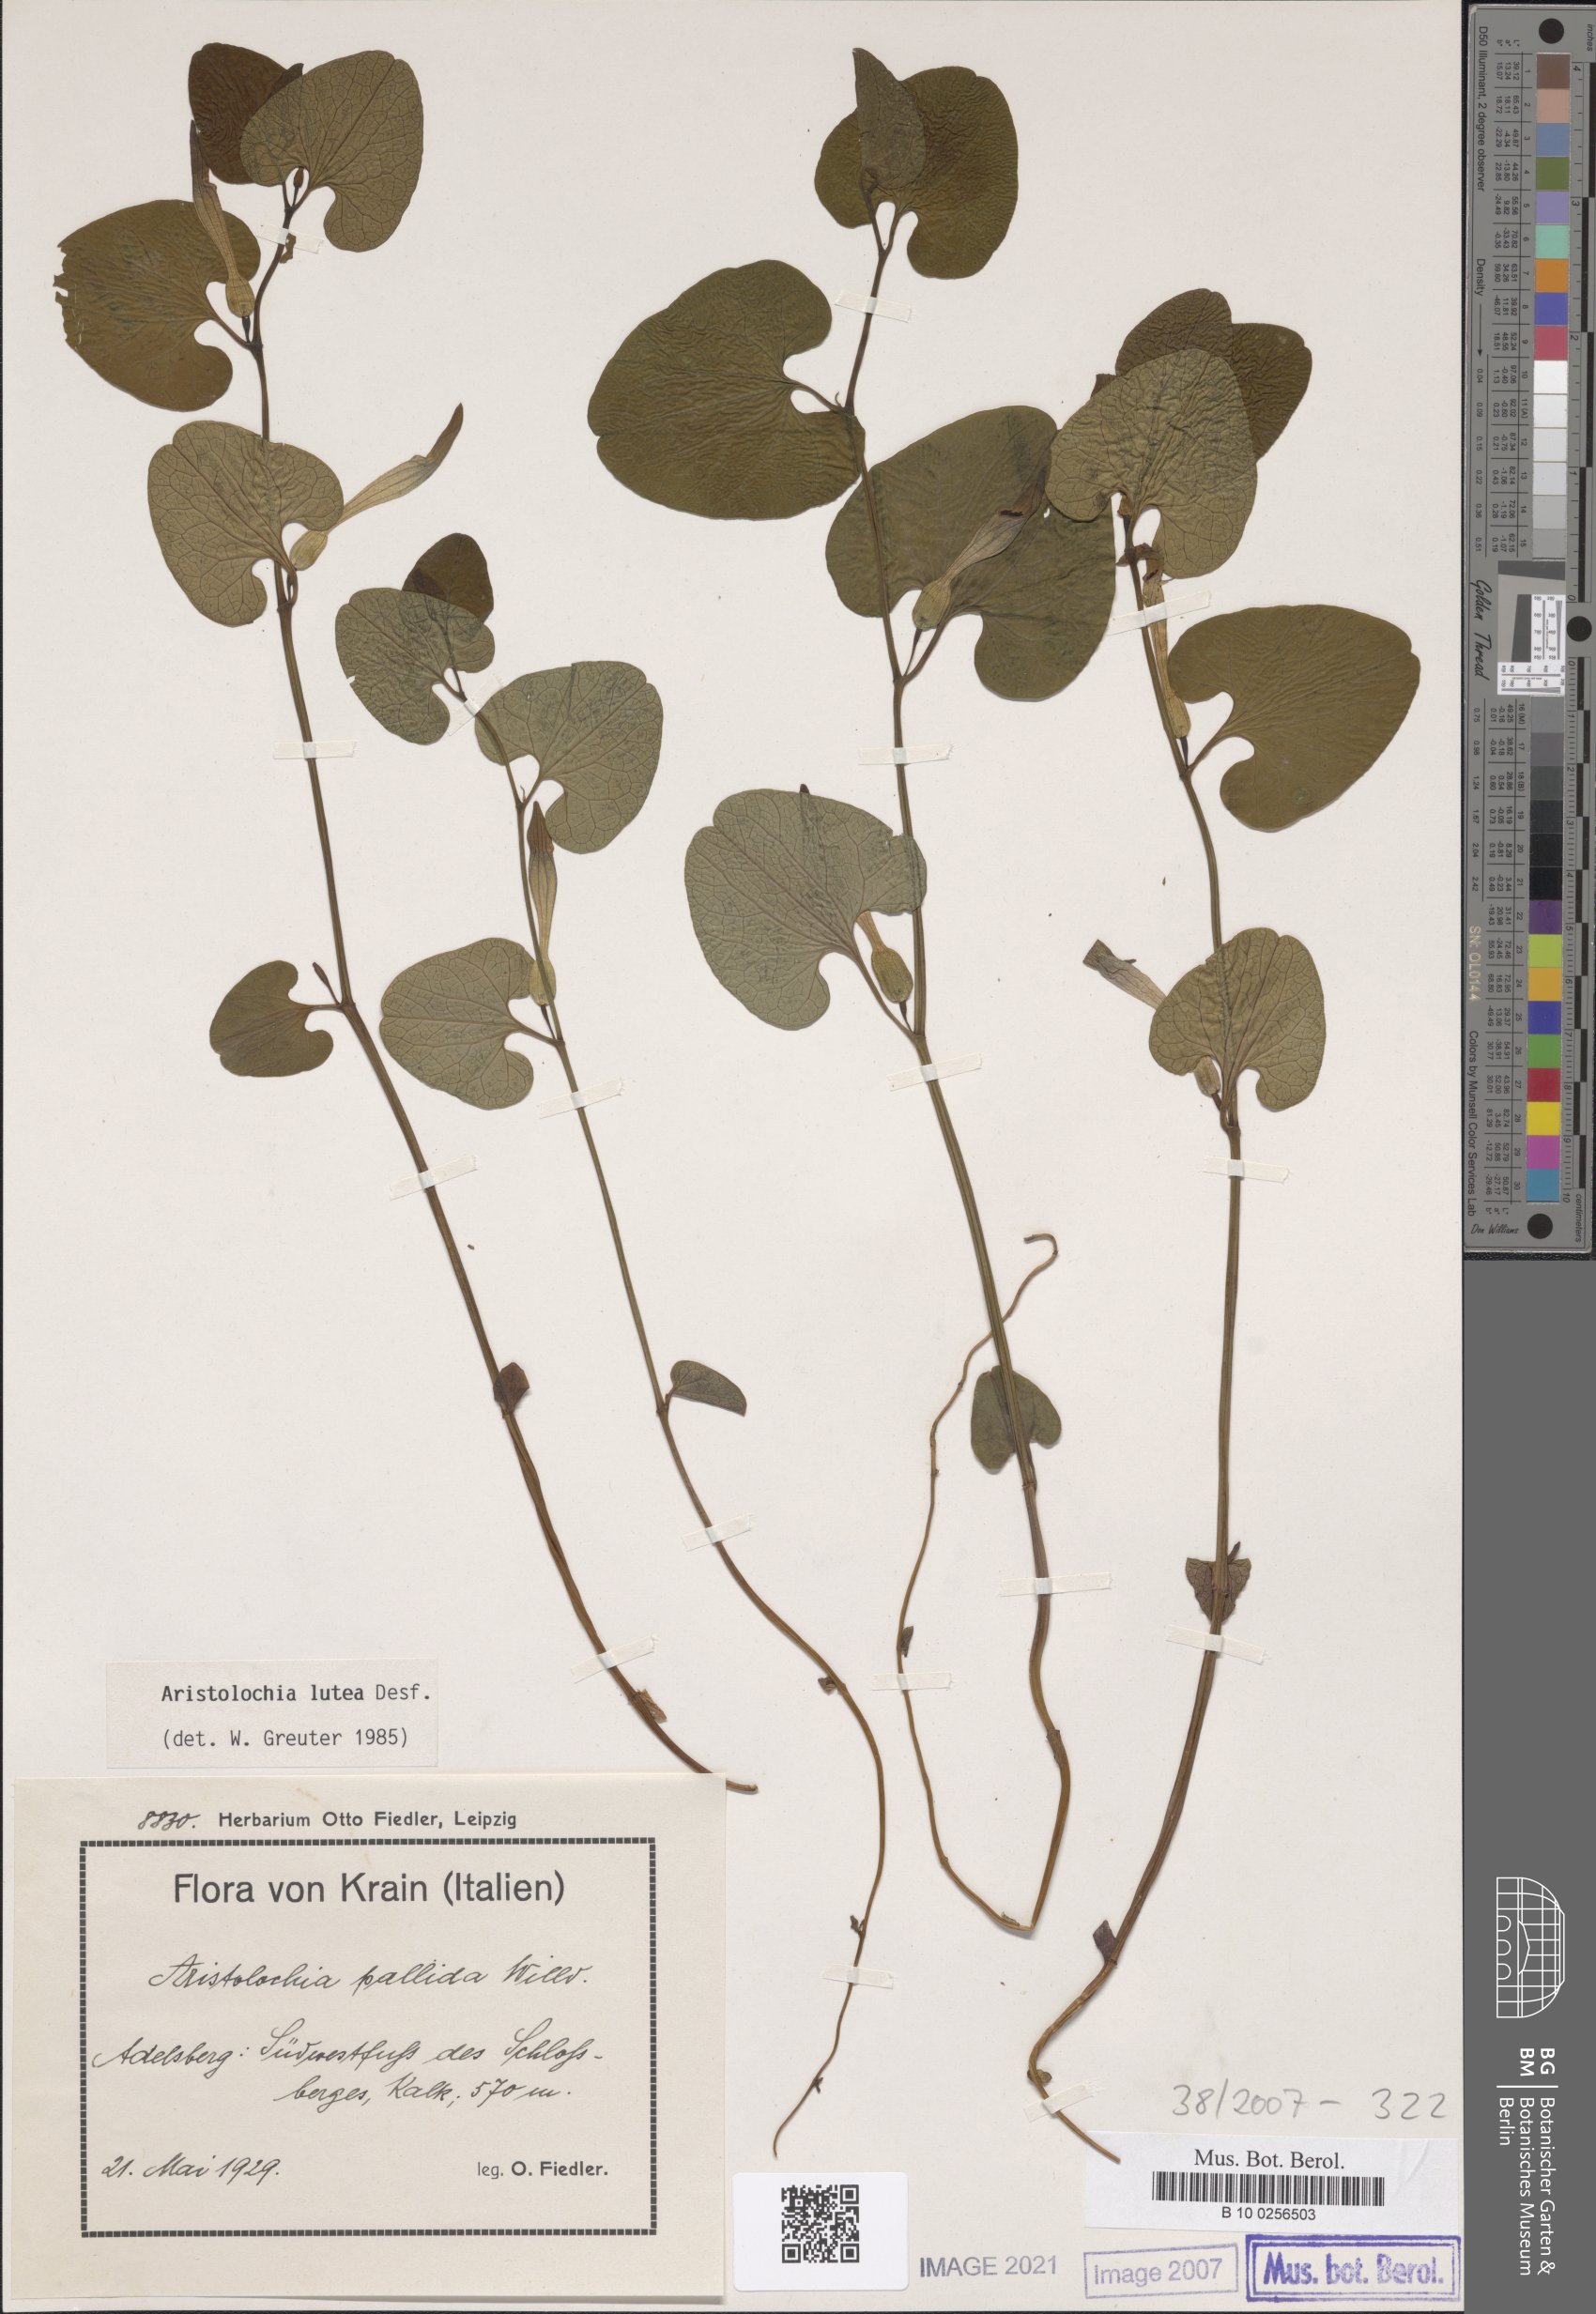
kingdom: Plantae
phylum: Tracheophyta
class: Magnoliopsida
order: Piperales
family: Aristolochiaceae
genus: Aristolochia
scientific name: Aristolochia lutea
